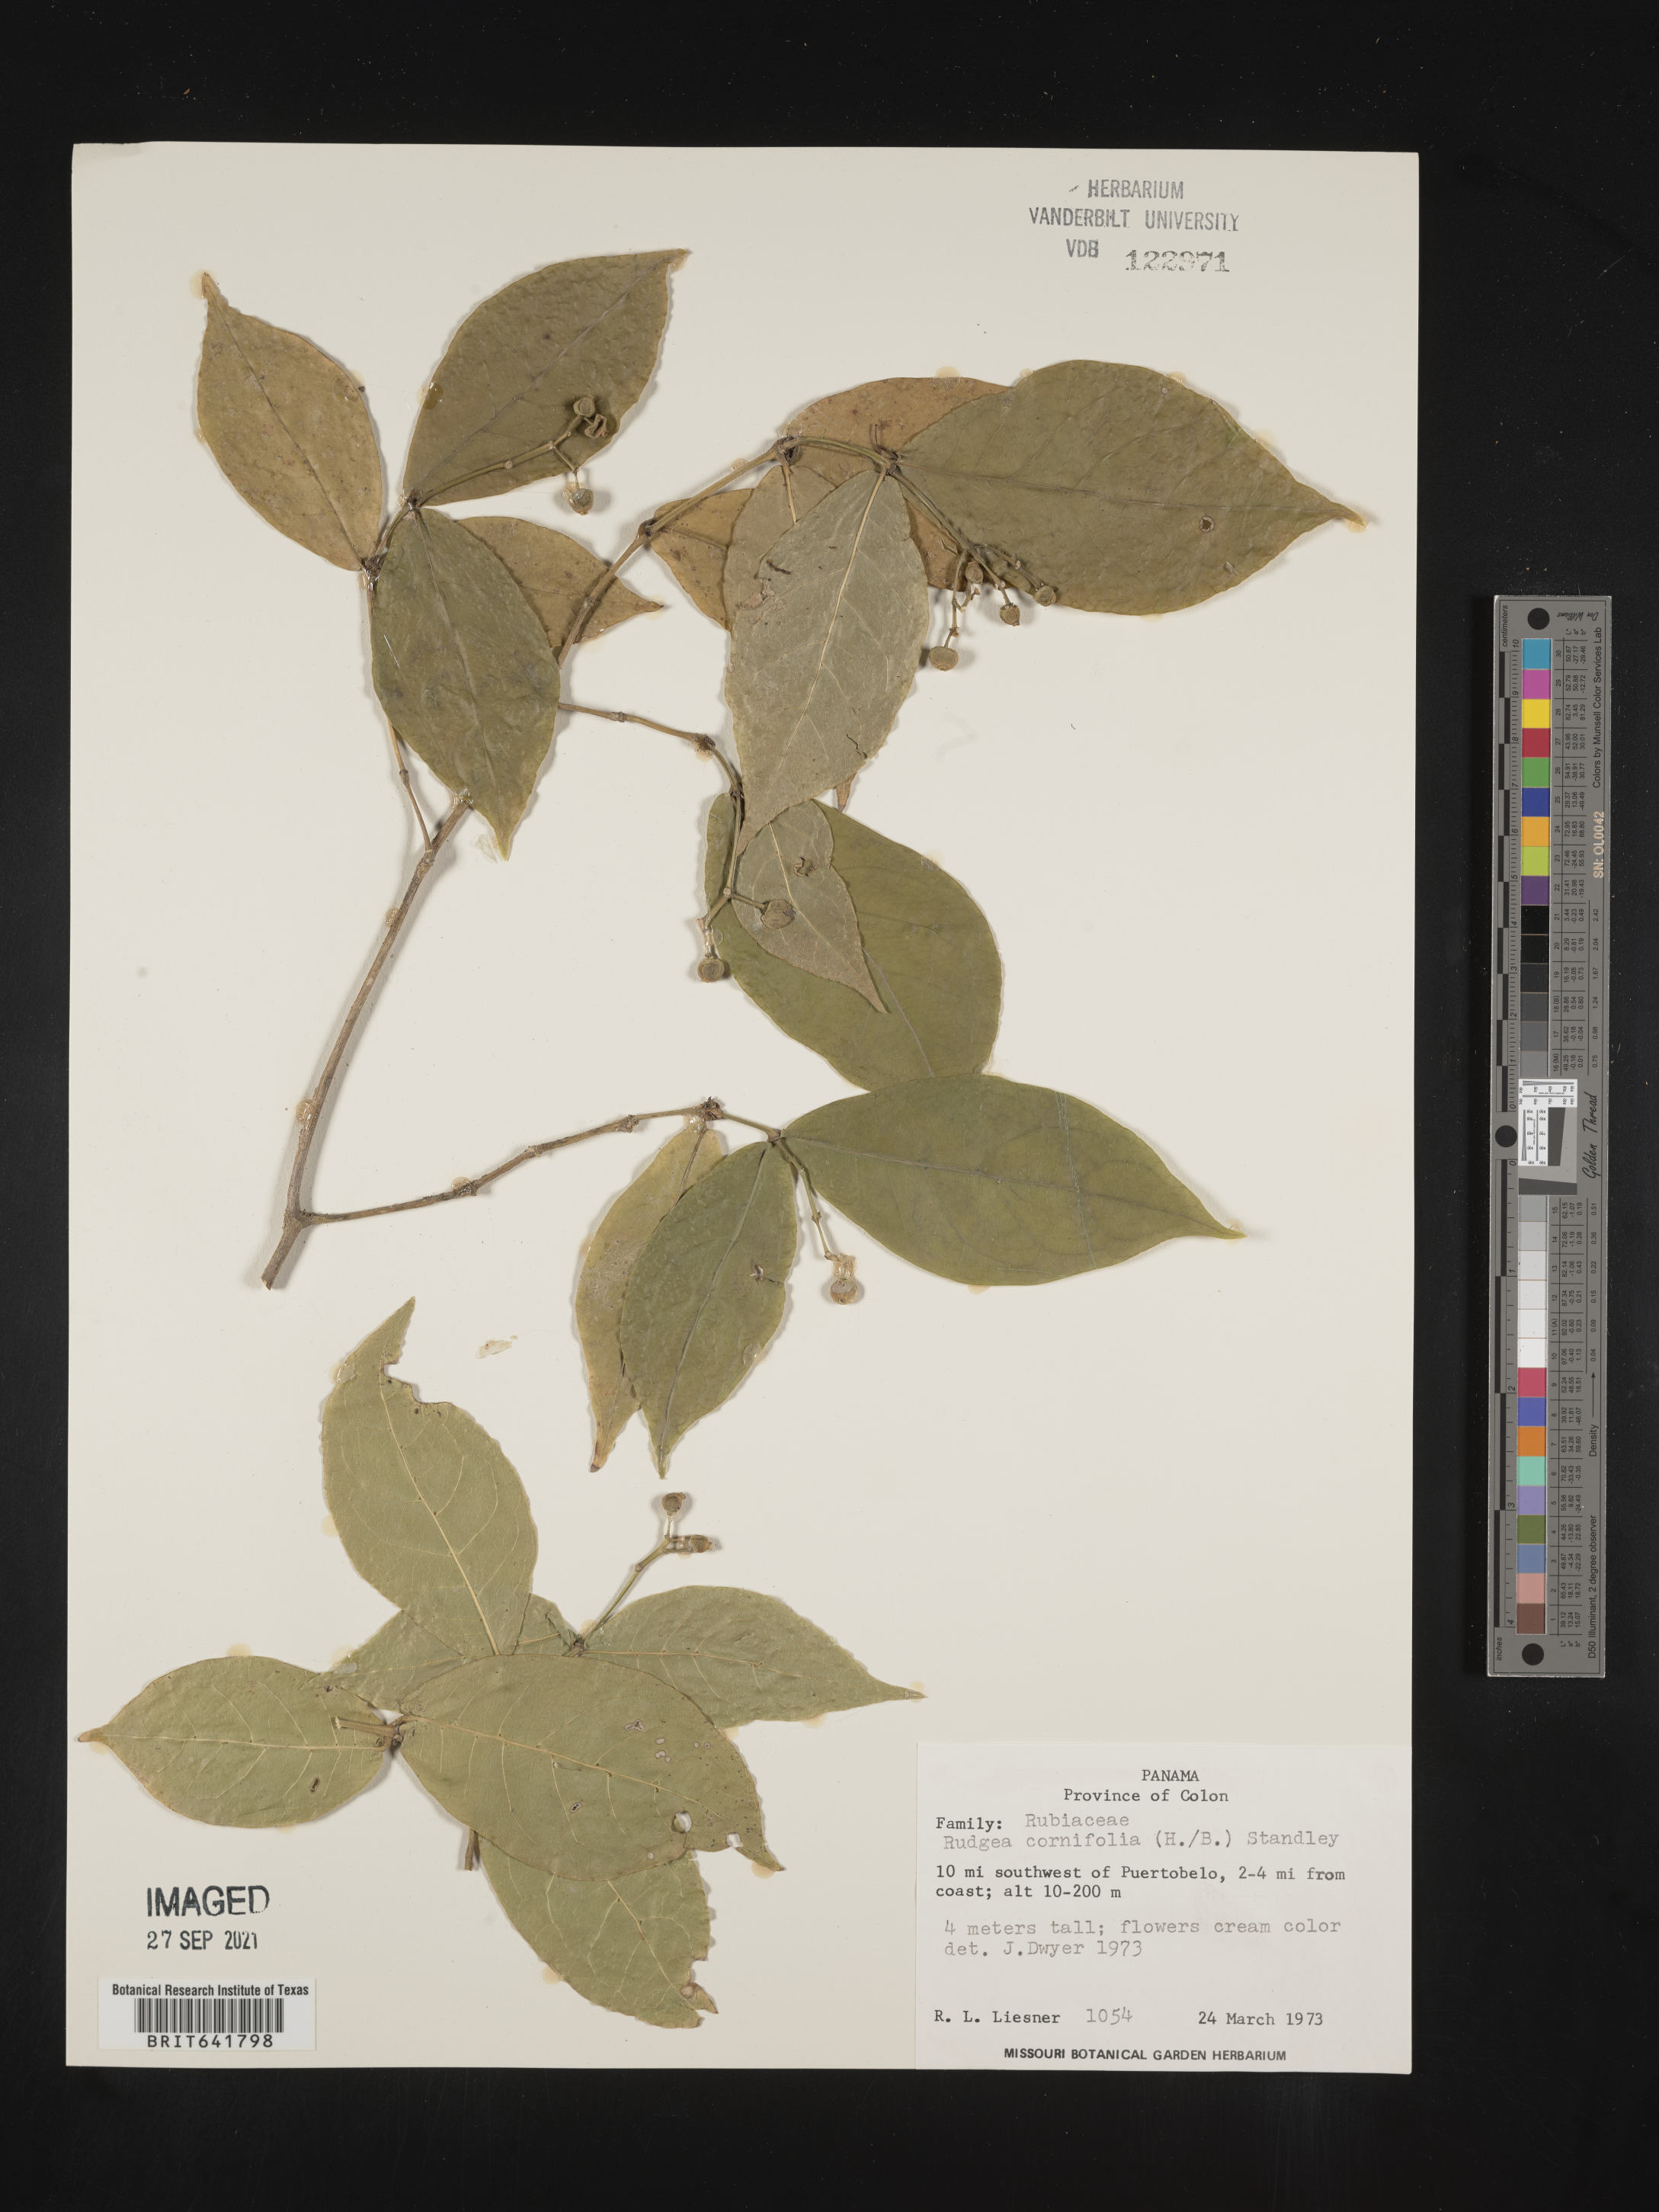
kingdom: Plantae
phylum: Tracheophyta
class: Magnoliopsida
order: Gentianales
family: Rubiaceae
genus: Rudgea
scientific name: Rudgea
